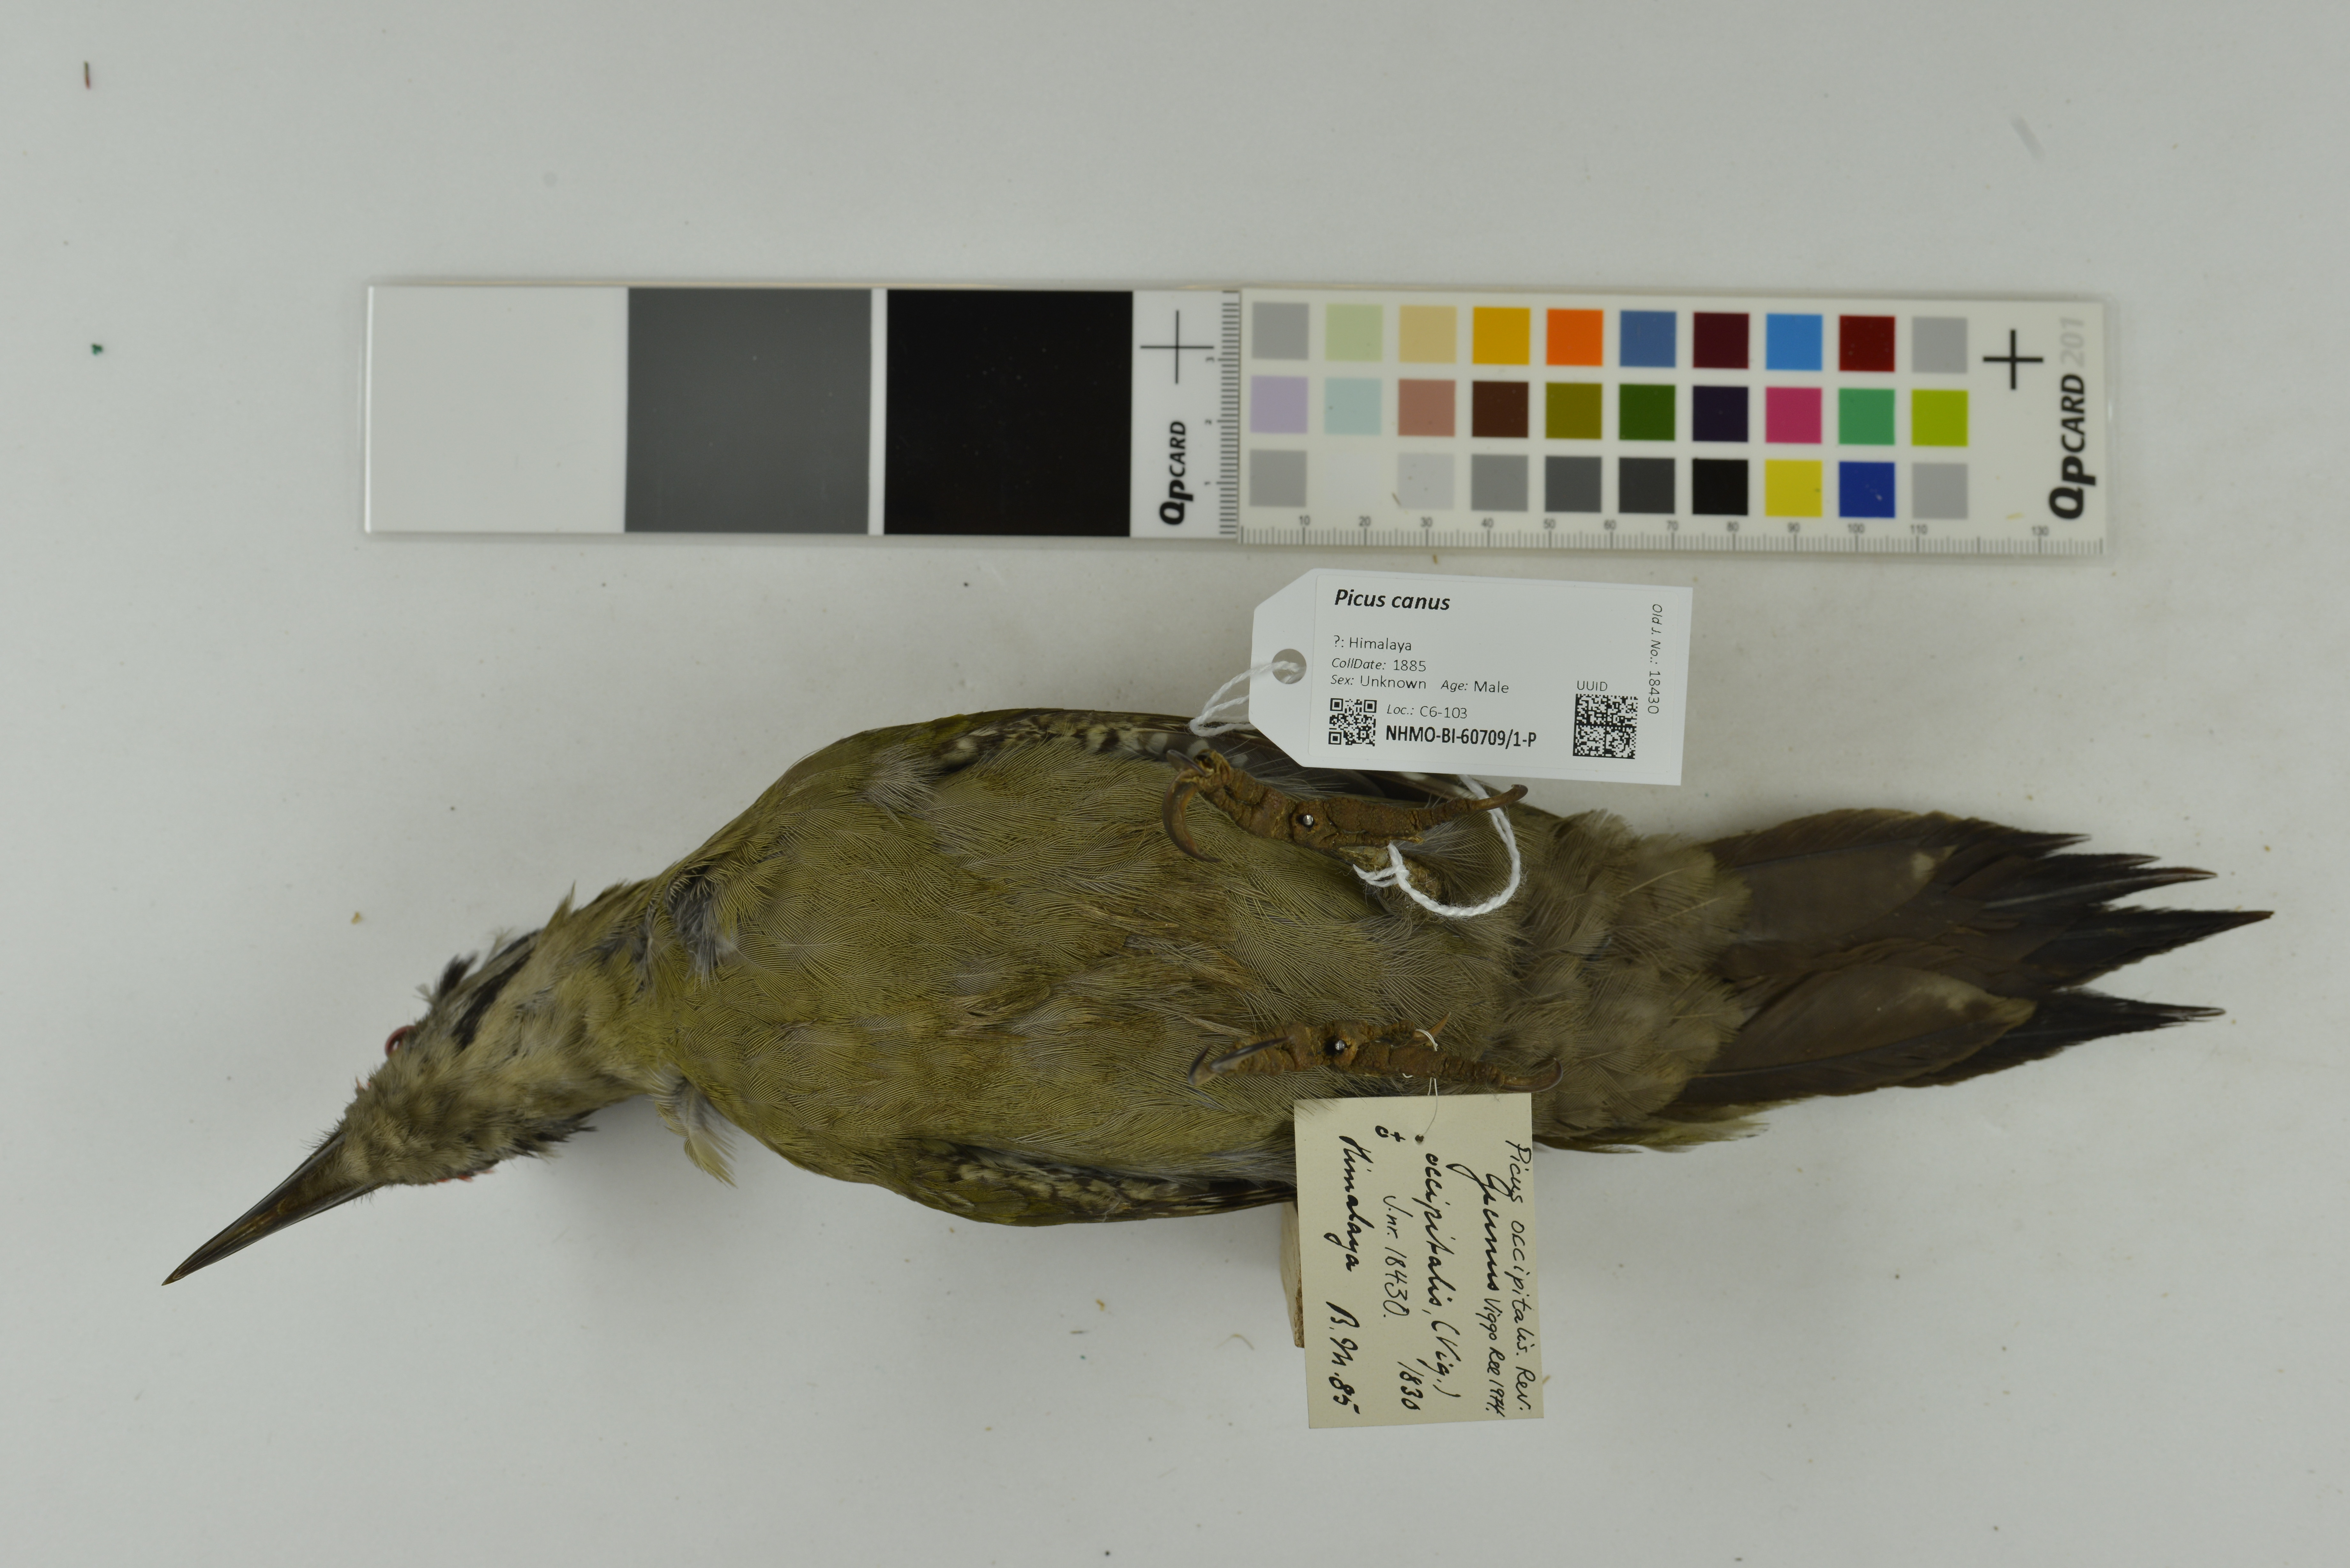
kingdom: Animalia
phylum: Chordata
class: Aves
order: Piciformes
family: Picidae
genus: Picus
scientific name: Picus canus
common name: Grey-headed woodpecker
